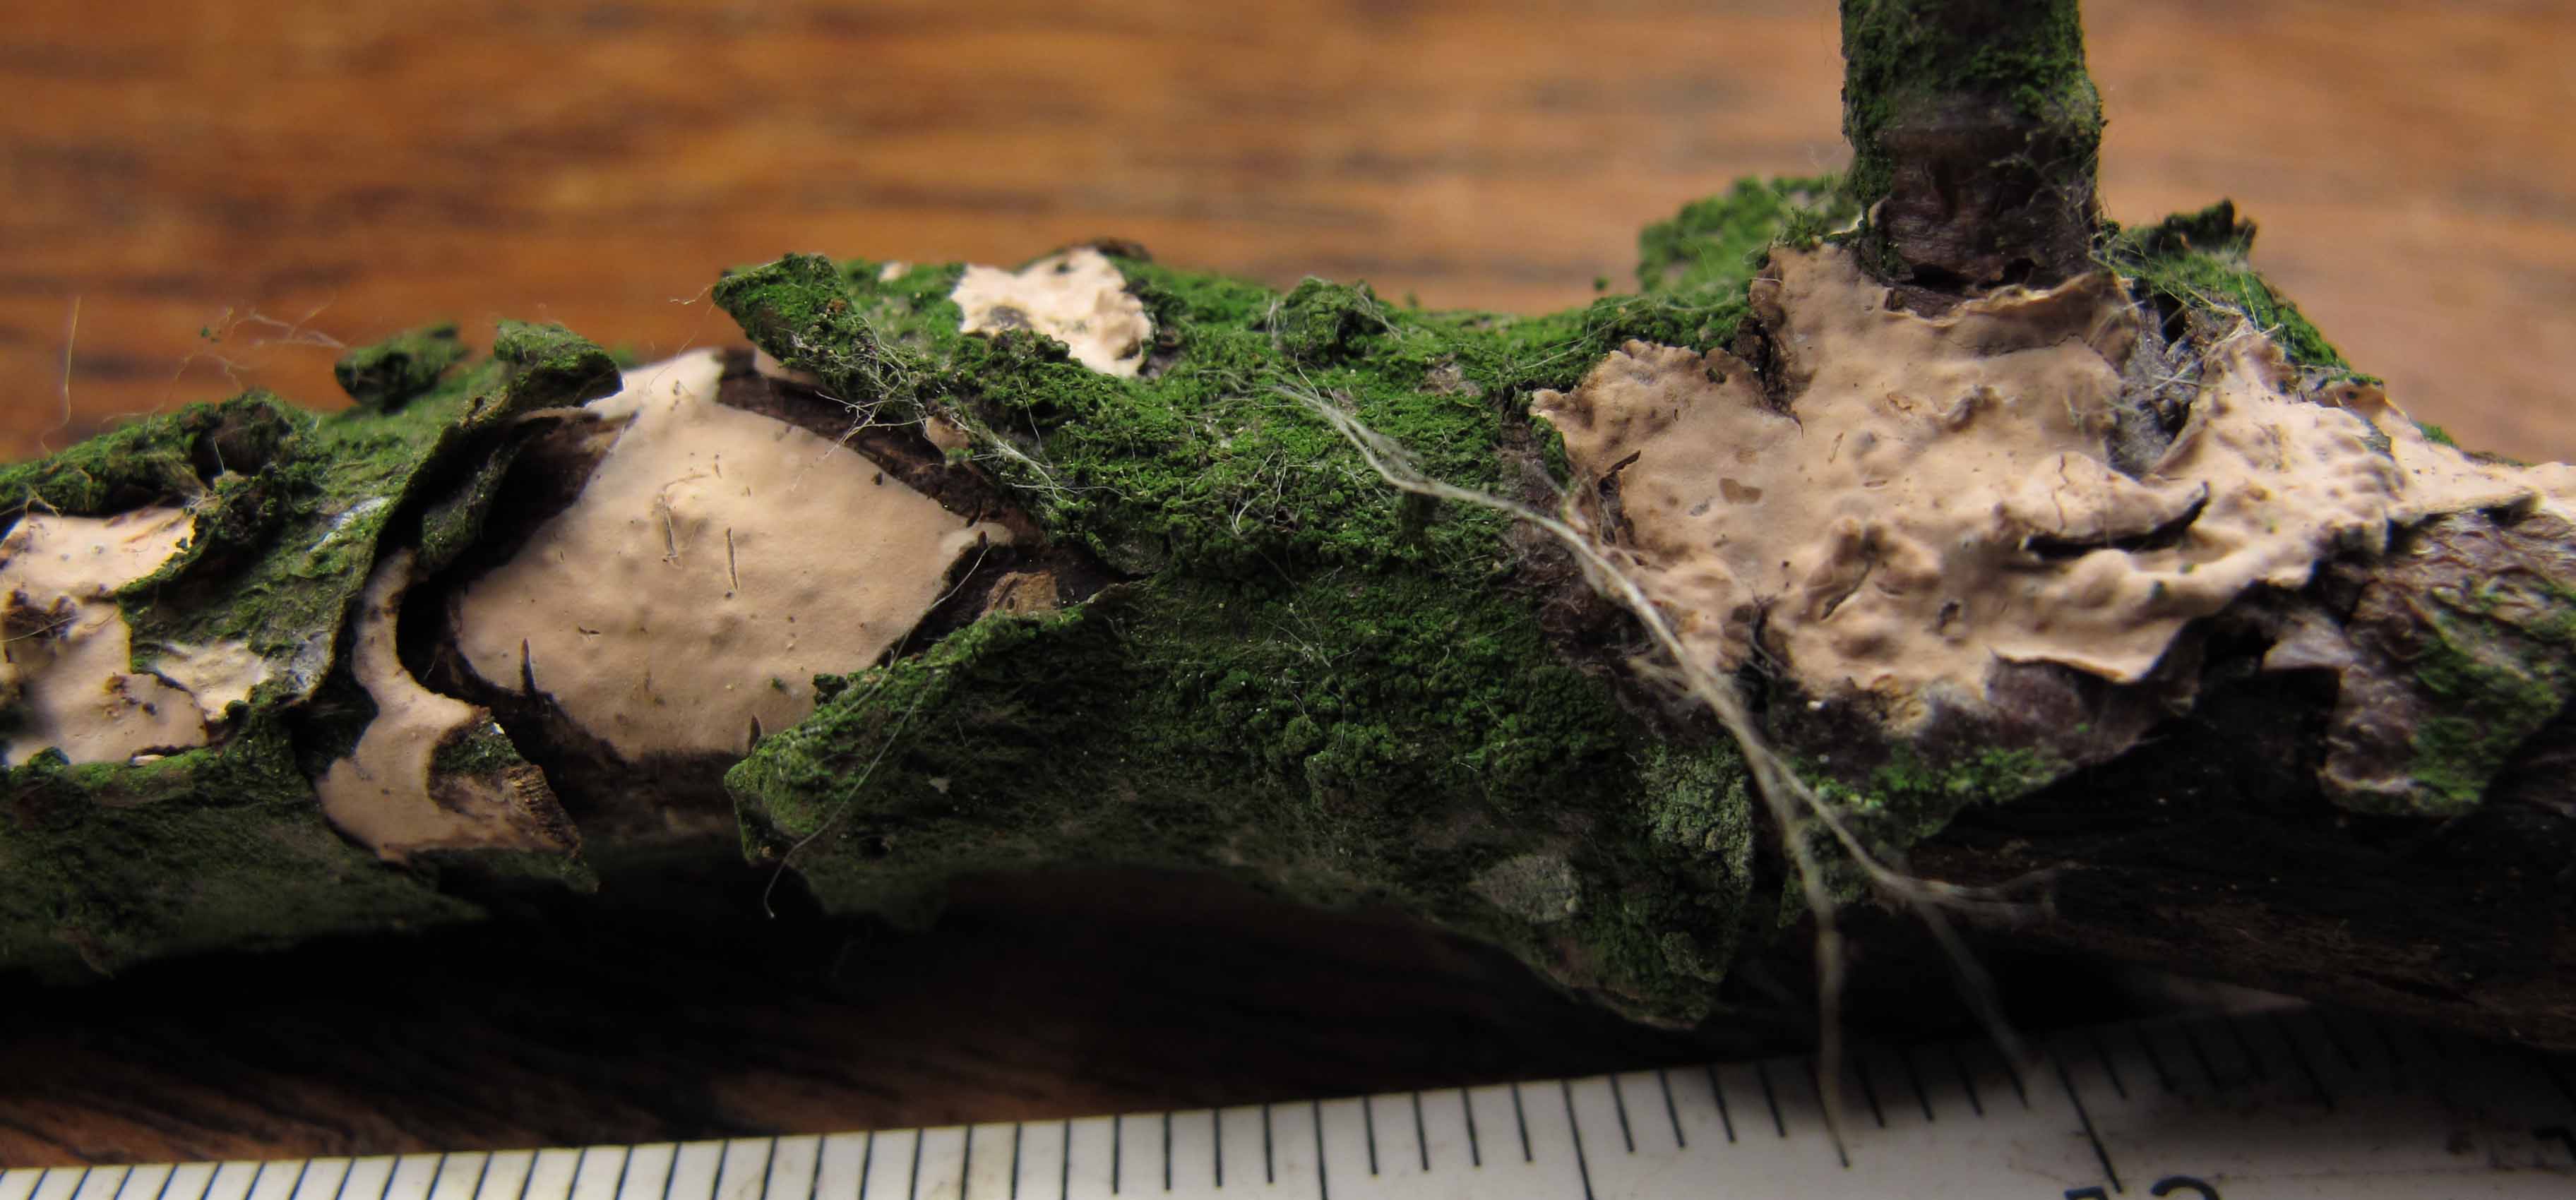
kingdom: Fungi
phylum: Basidiomycota
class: Agaricomycetes
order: Polyporales
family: Phanerochaetaceae
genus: Phanerochaete
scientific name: Phanerochaete velutina
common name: dunet randtråd
